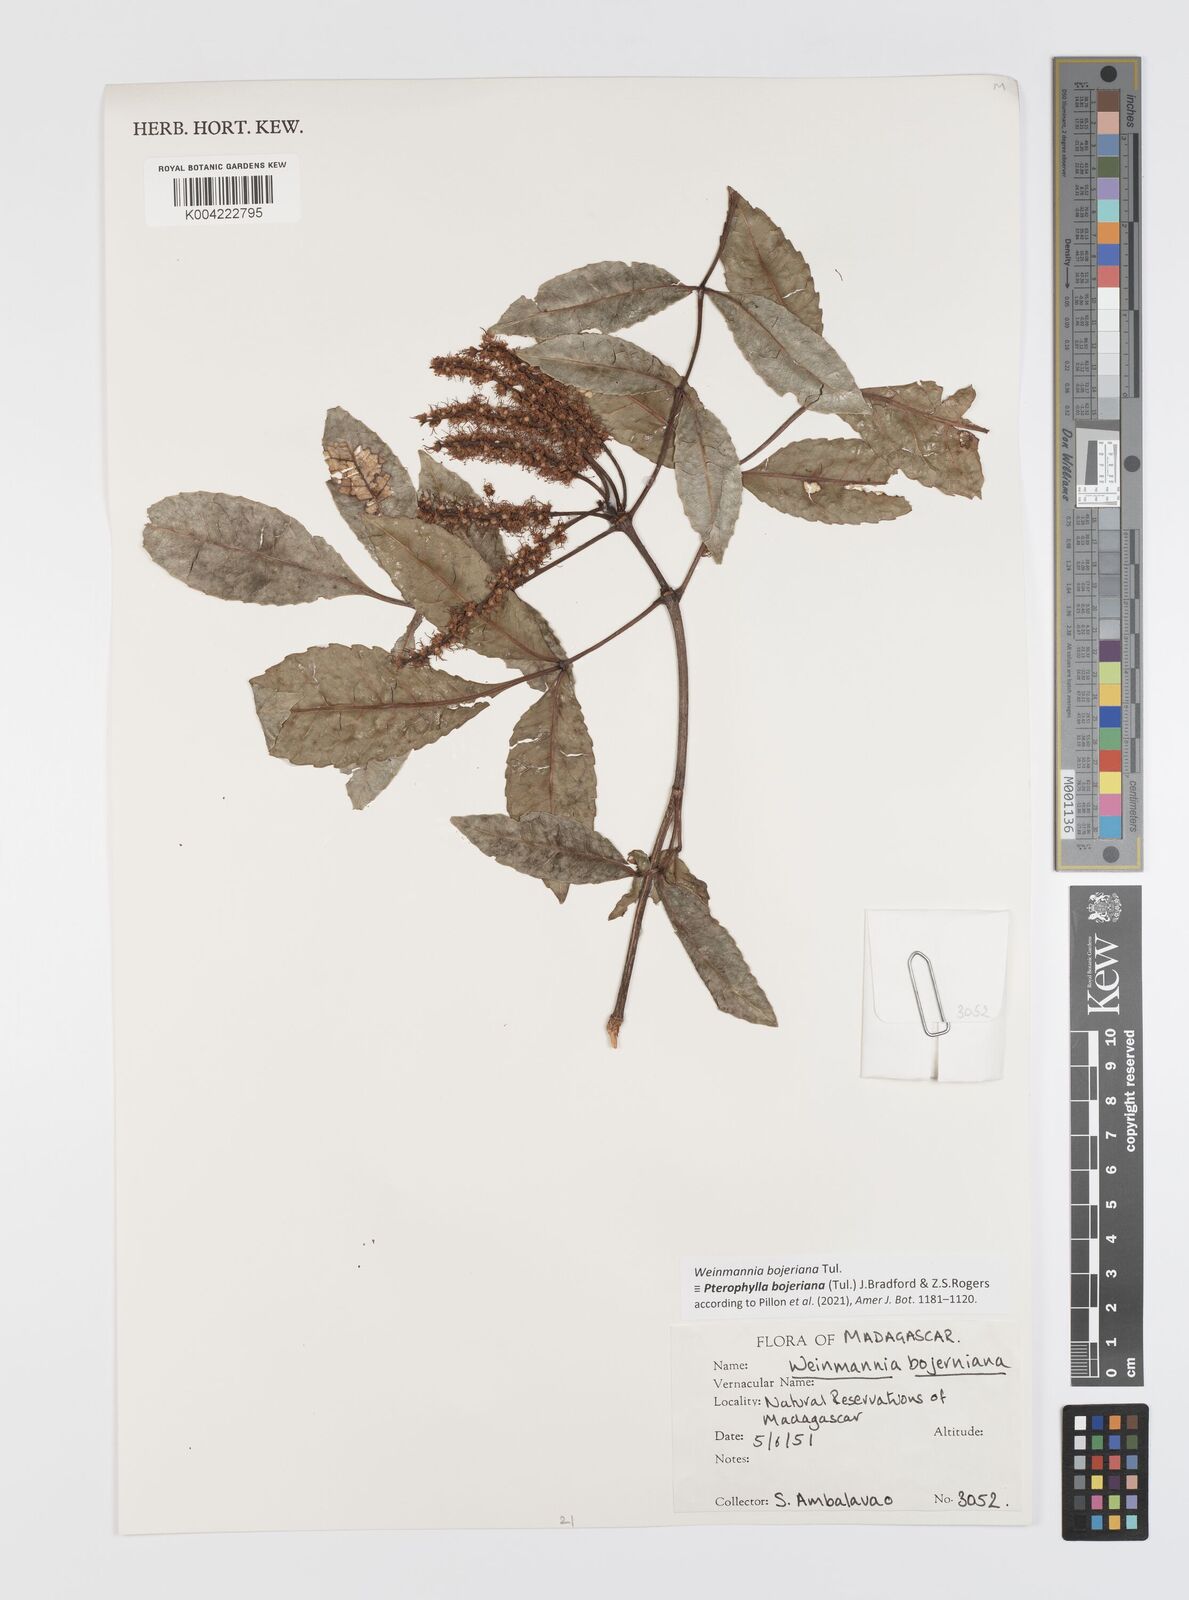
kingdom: Plantae
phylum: Tracheophyta
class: Magnoliopsida
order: Oxalidales
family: Cunoniaceae
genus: Pterophylla
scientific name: Pterophylla
